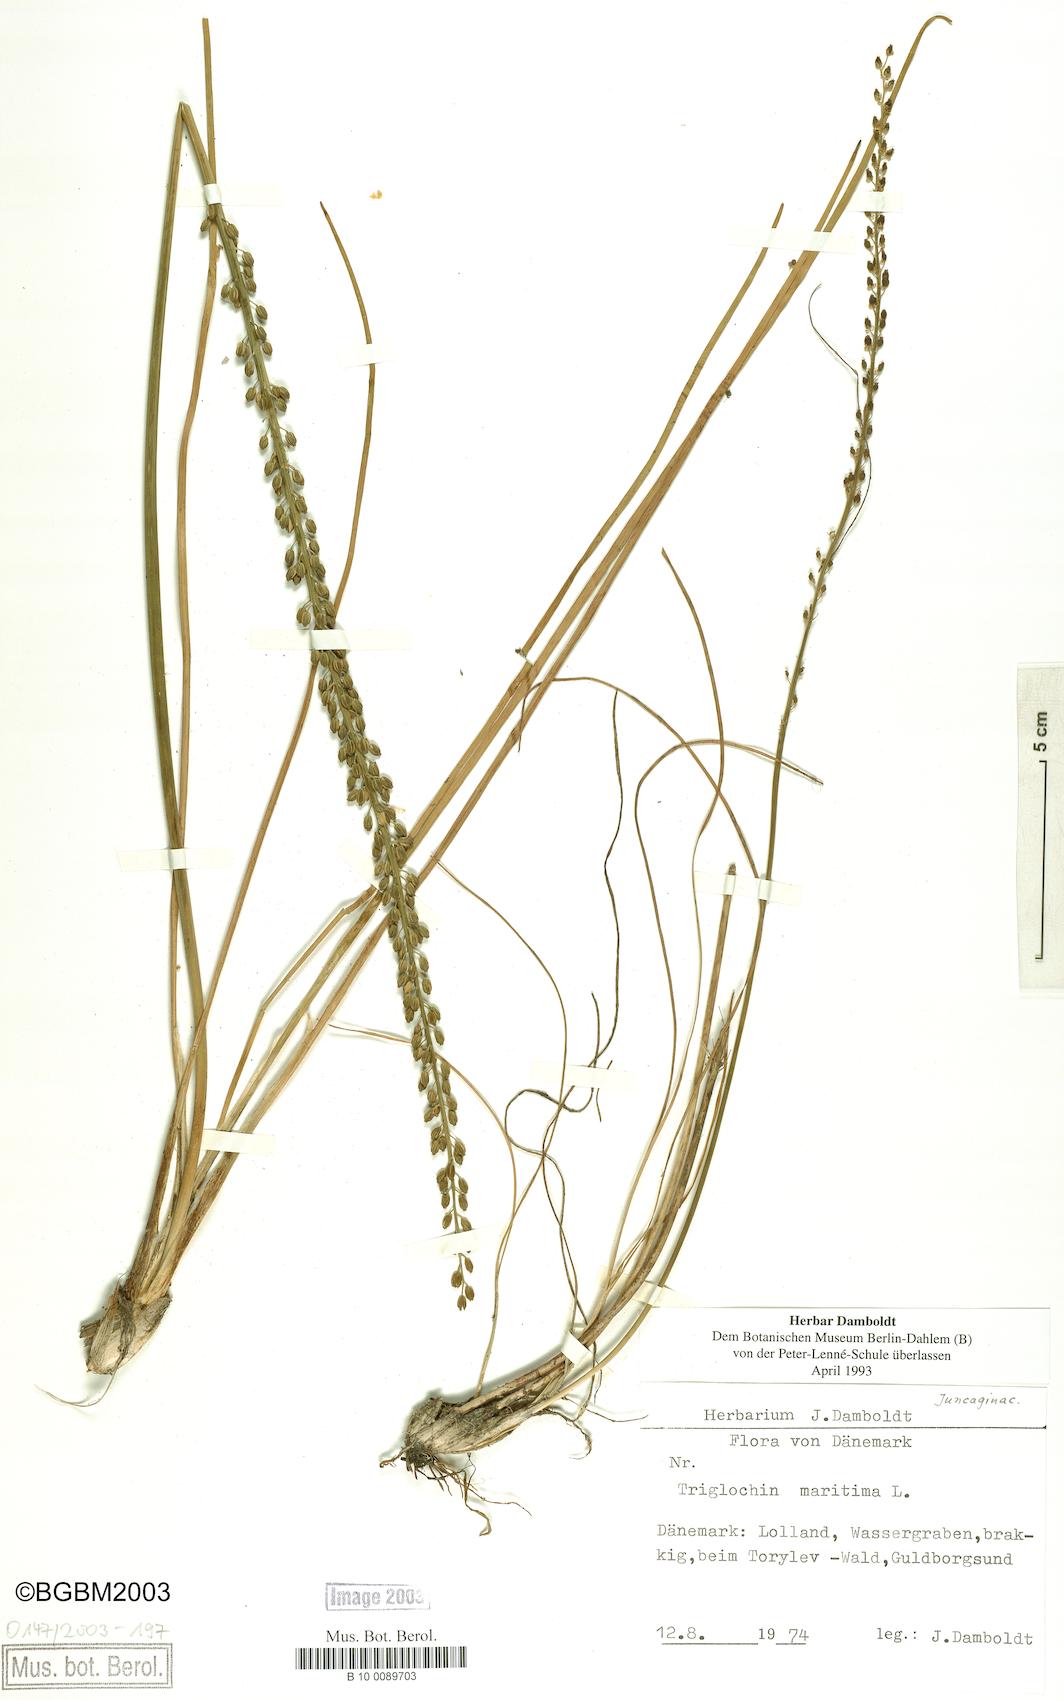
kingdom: Plantae
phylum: Tracheophyta
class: Liliopsida
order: Alismatales
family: Juncaginaceae
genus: Triglochin
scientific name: Triglochin maritima
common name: Sea arrowgrass
